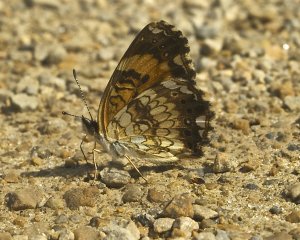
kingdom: Animalia
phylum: Arthropoda
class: Insecta
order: Lepidoptera
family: Nymphalidae
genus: Chlosyne
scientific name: Chlosyne nycteis
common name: Silvery Checkerspot
